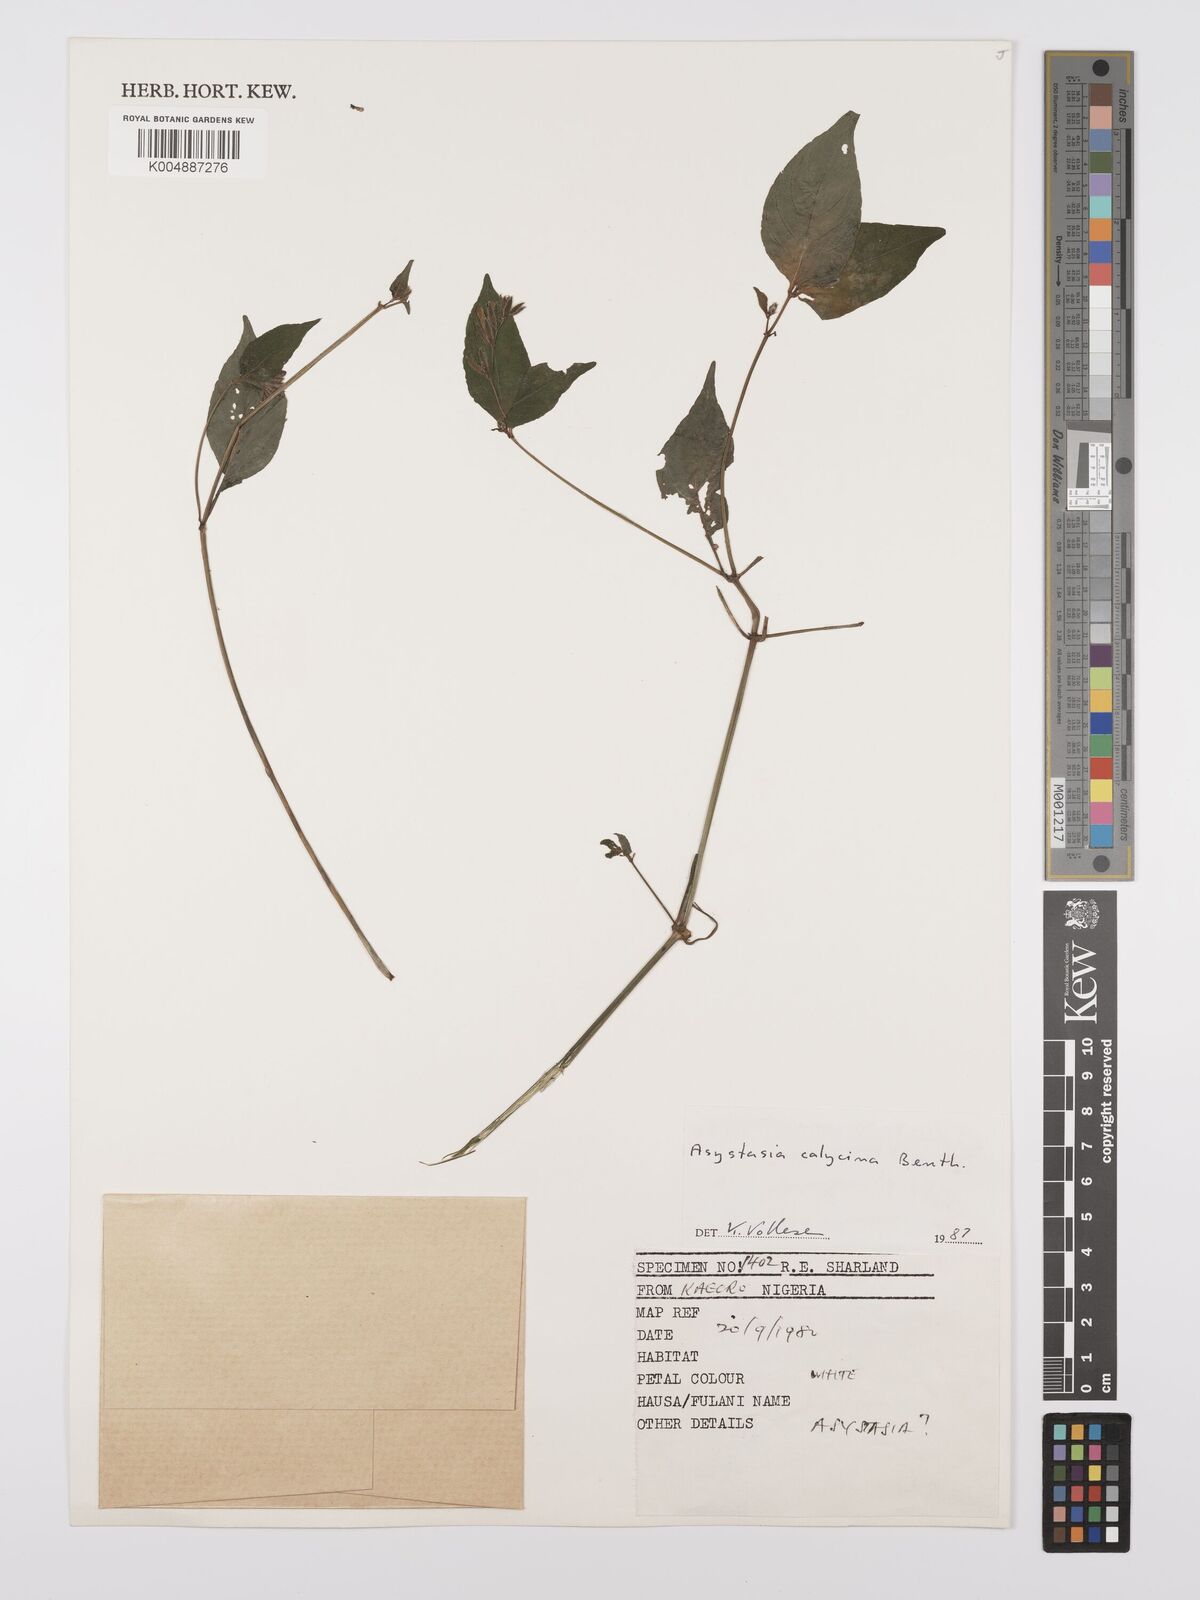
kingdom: Plantae
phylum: Tracheophyta
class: Magnoliopsida
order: Lamiales
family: Acanthaceae
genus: Asystasia
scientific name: Asystasia buettneri
